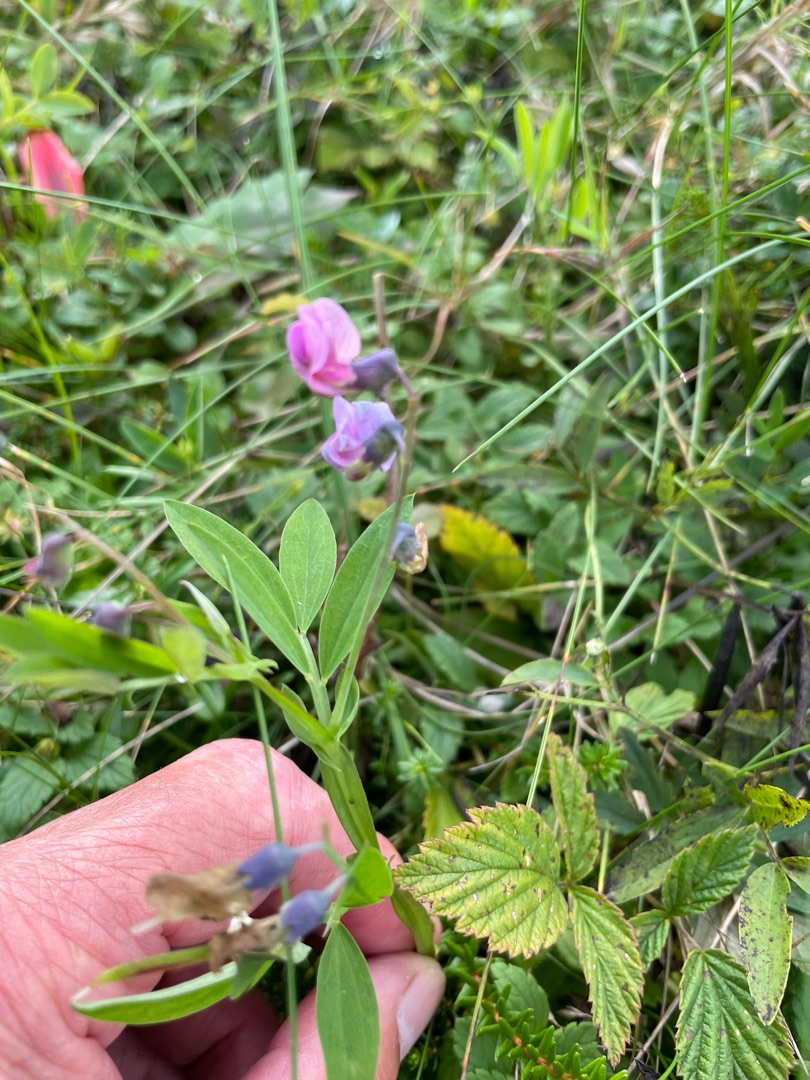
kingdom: Plantae
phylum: Tracheophyta
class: Magnoliopsida
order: Fabales
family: Fabaceae
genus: Lathyrus
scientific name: Lathyrus linifolius
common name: Krat-fladbælg
